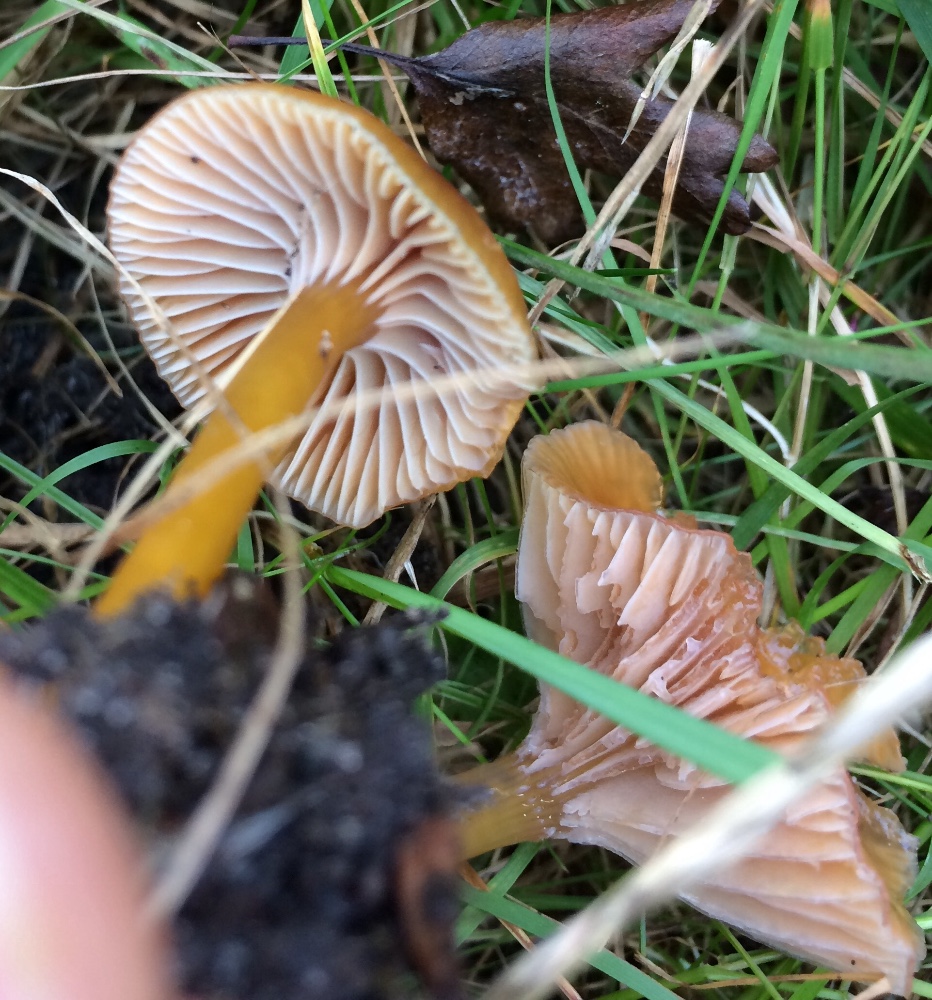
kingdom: Fungi
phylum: Basidiomycota
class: Agaricomycetes
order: Agaricales
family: Hygrophoraceae
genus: Gliophorus
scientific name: Gliophorus laetus
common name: brusk-vokshat
